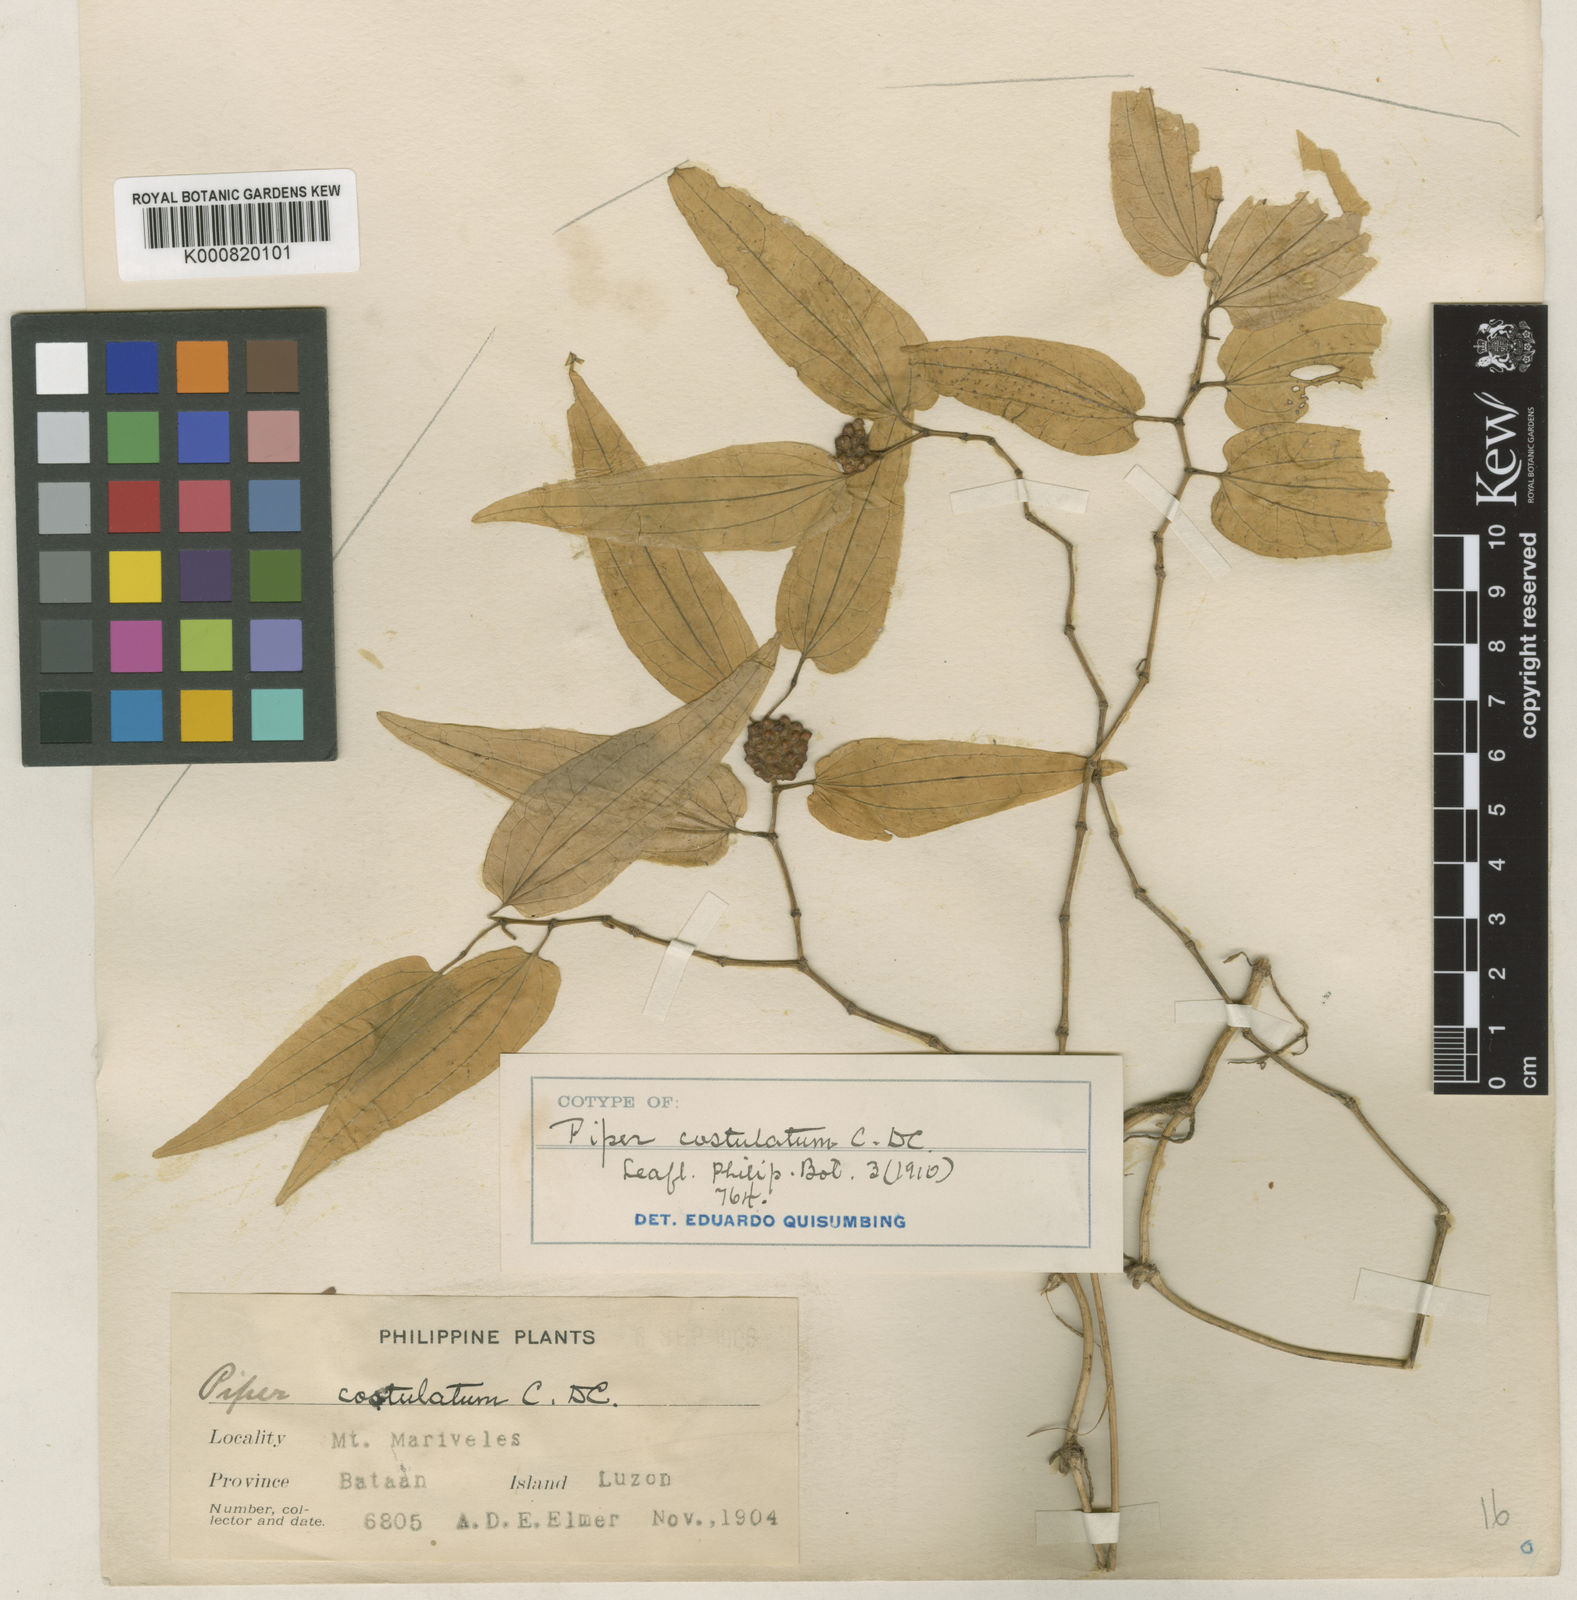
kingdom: Plantae
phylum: Tracheophyta
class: Magnoliopsida
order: Piperales
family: Piperaceae
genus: Piper
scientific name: Piper costulatum
